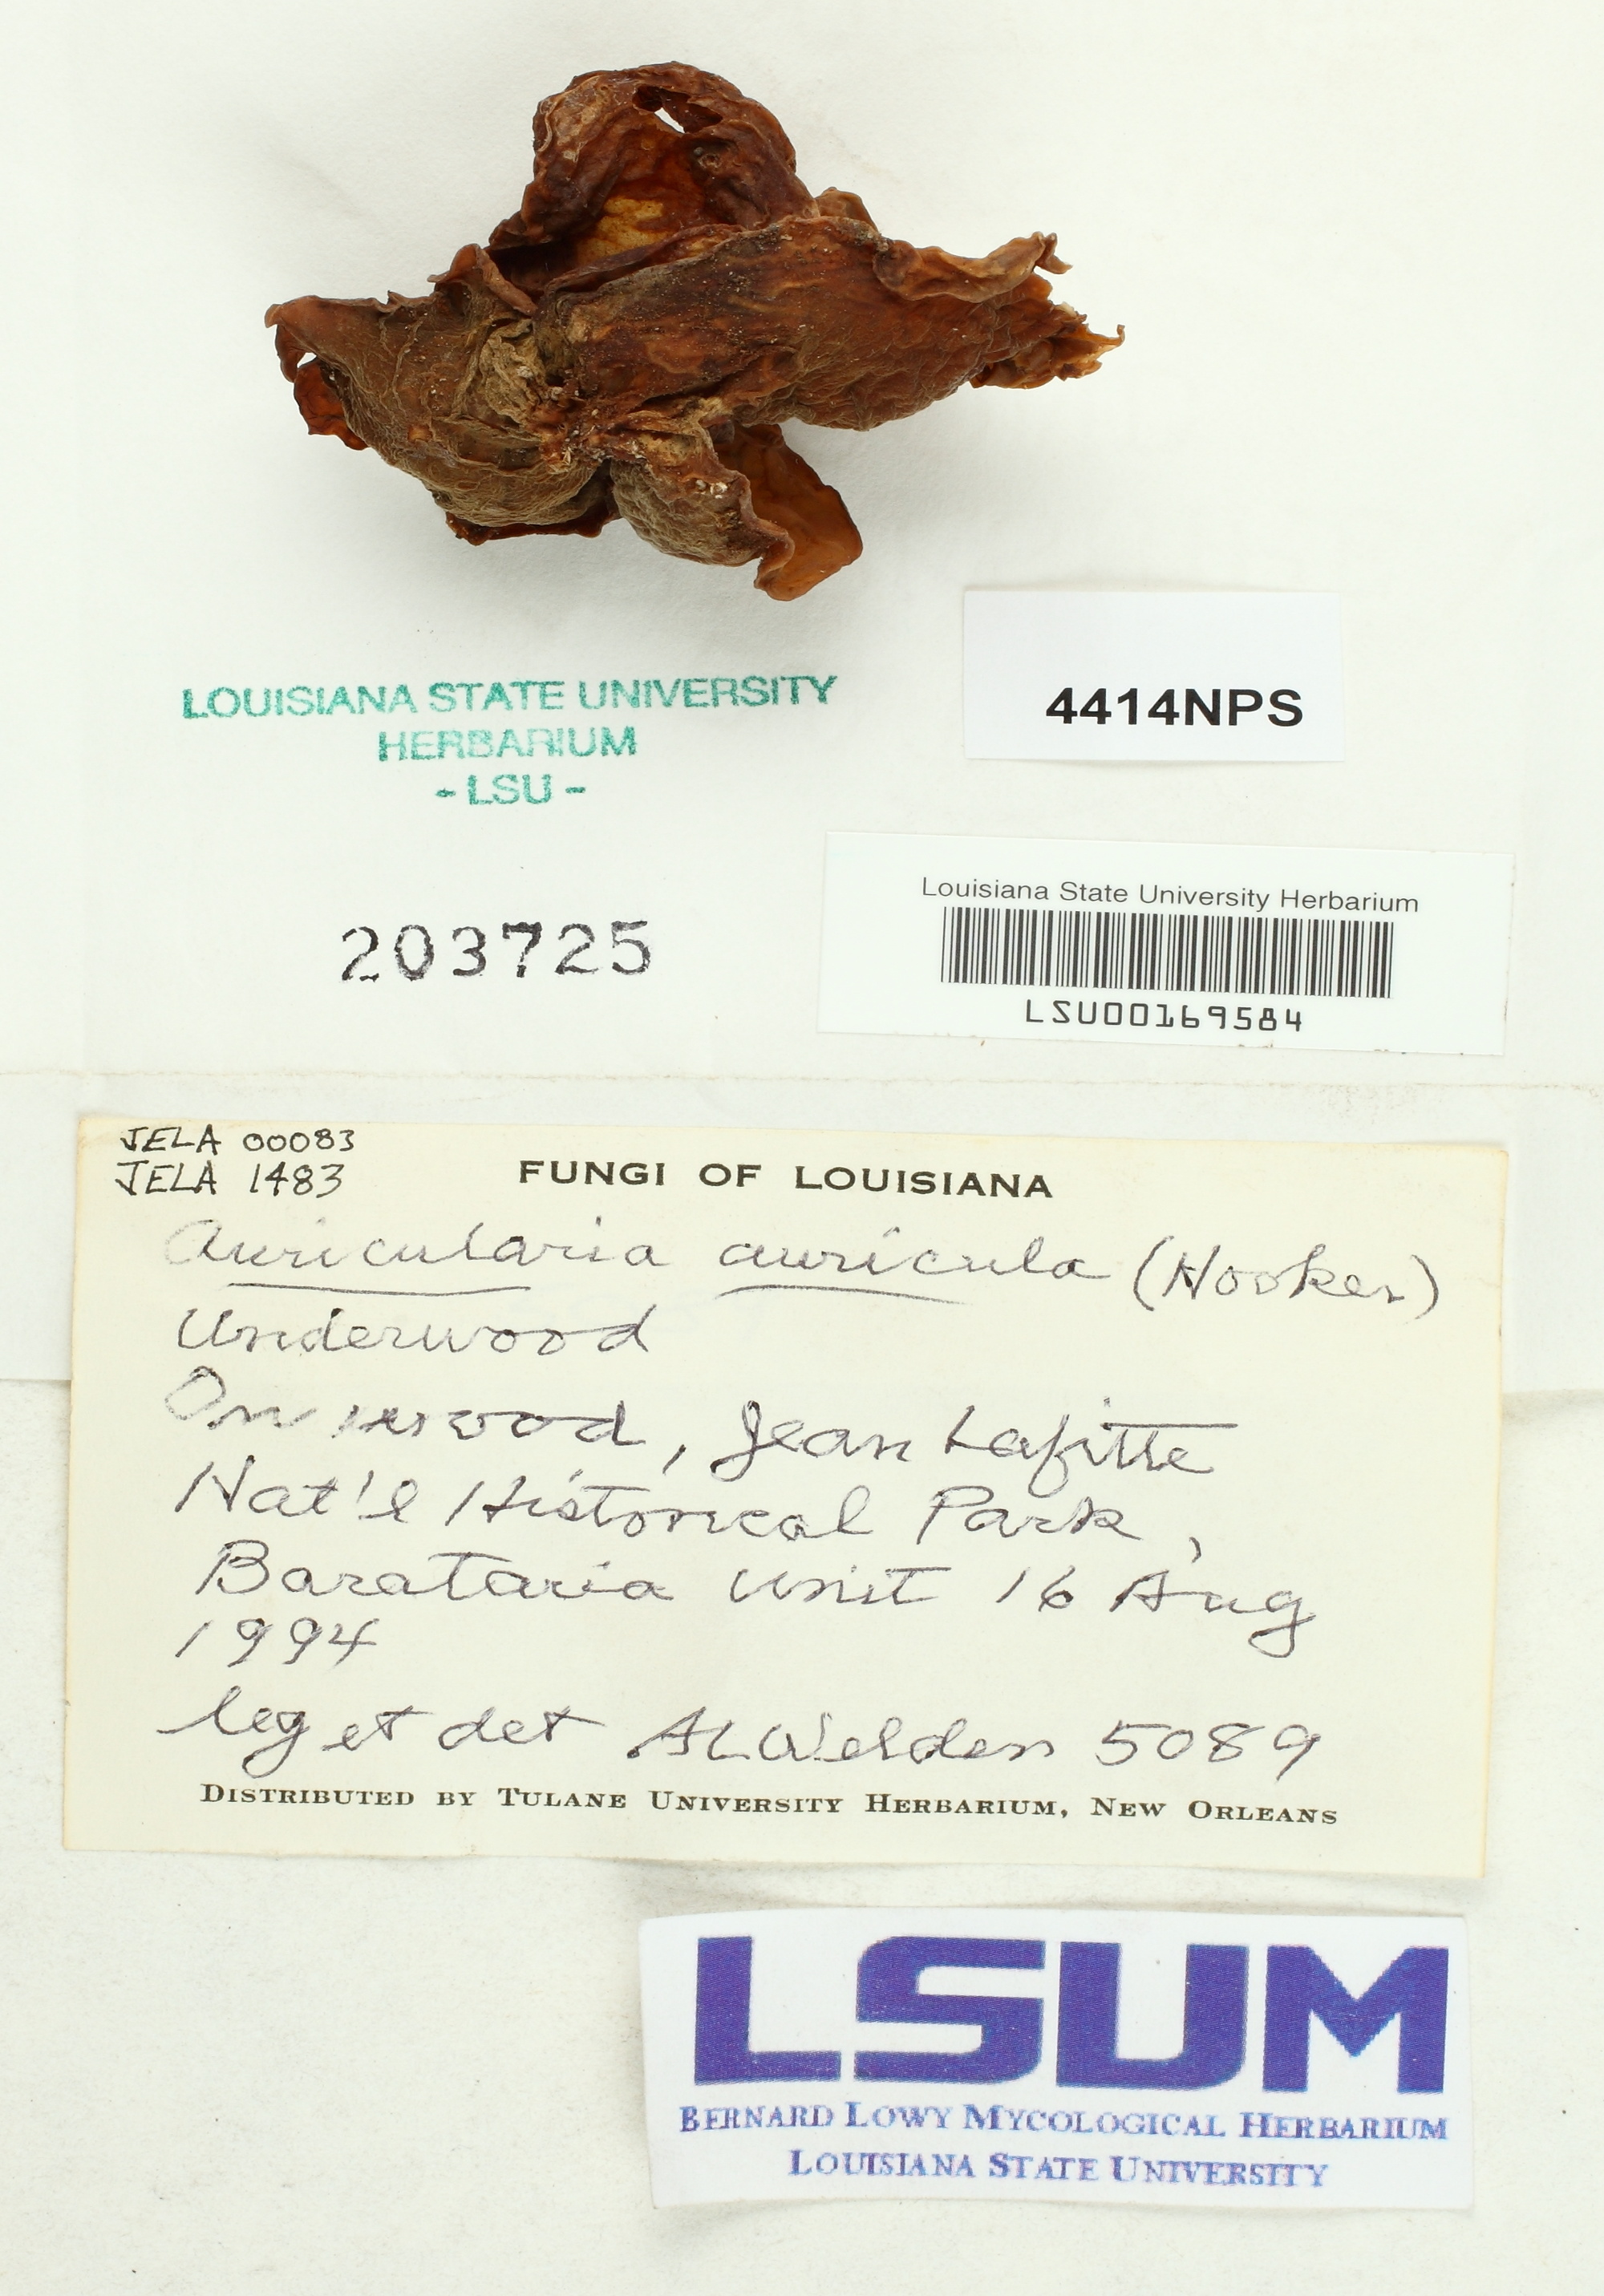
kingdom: Fungi
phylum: Basidiomycota
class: Agaricomycetes
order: Auriculariales
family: Auriculariaceae
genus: Auricularia
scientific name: Auricularia auricula-judae
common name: Jelly ear
